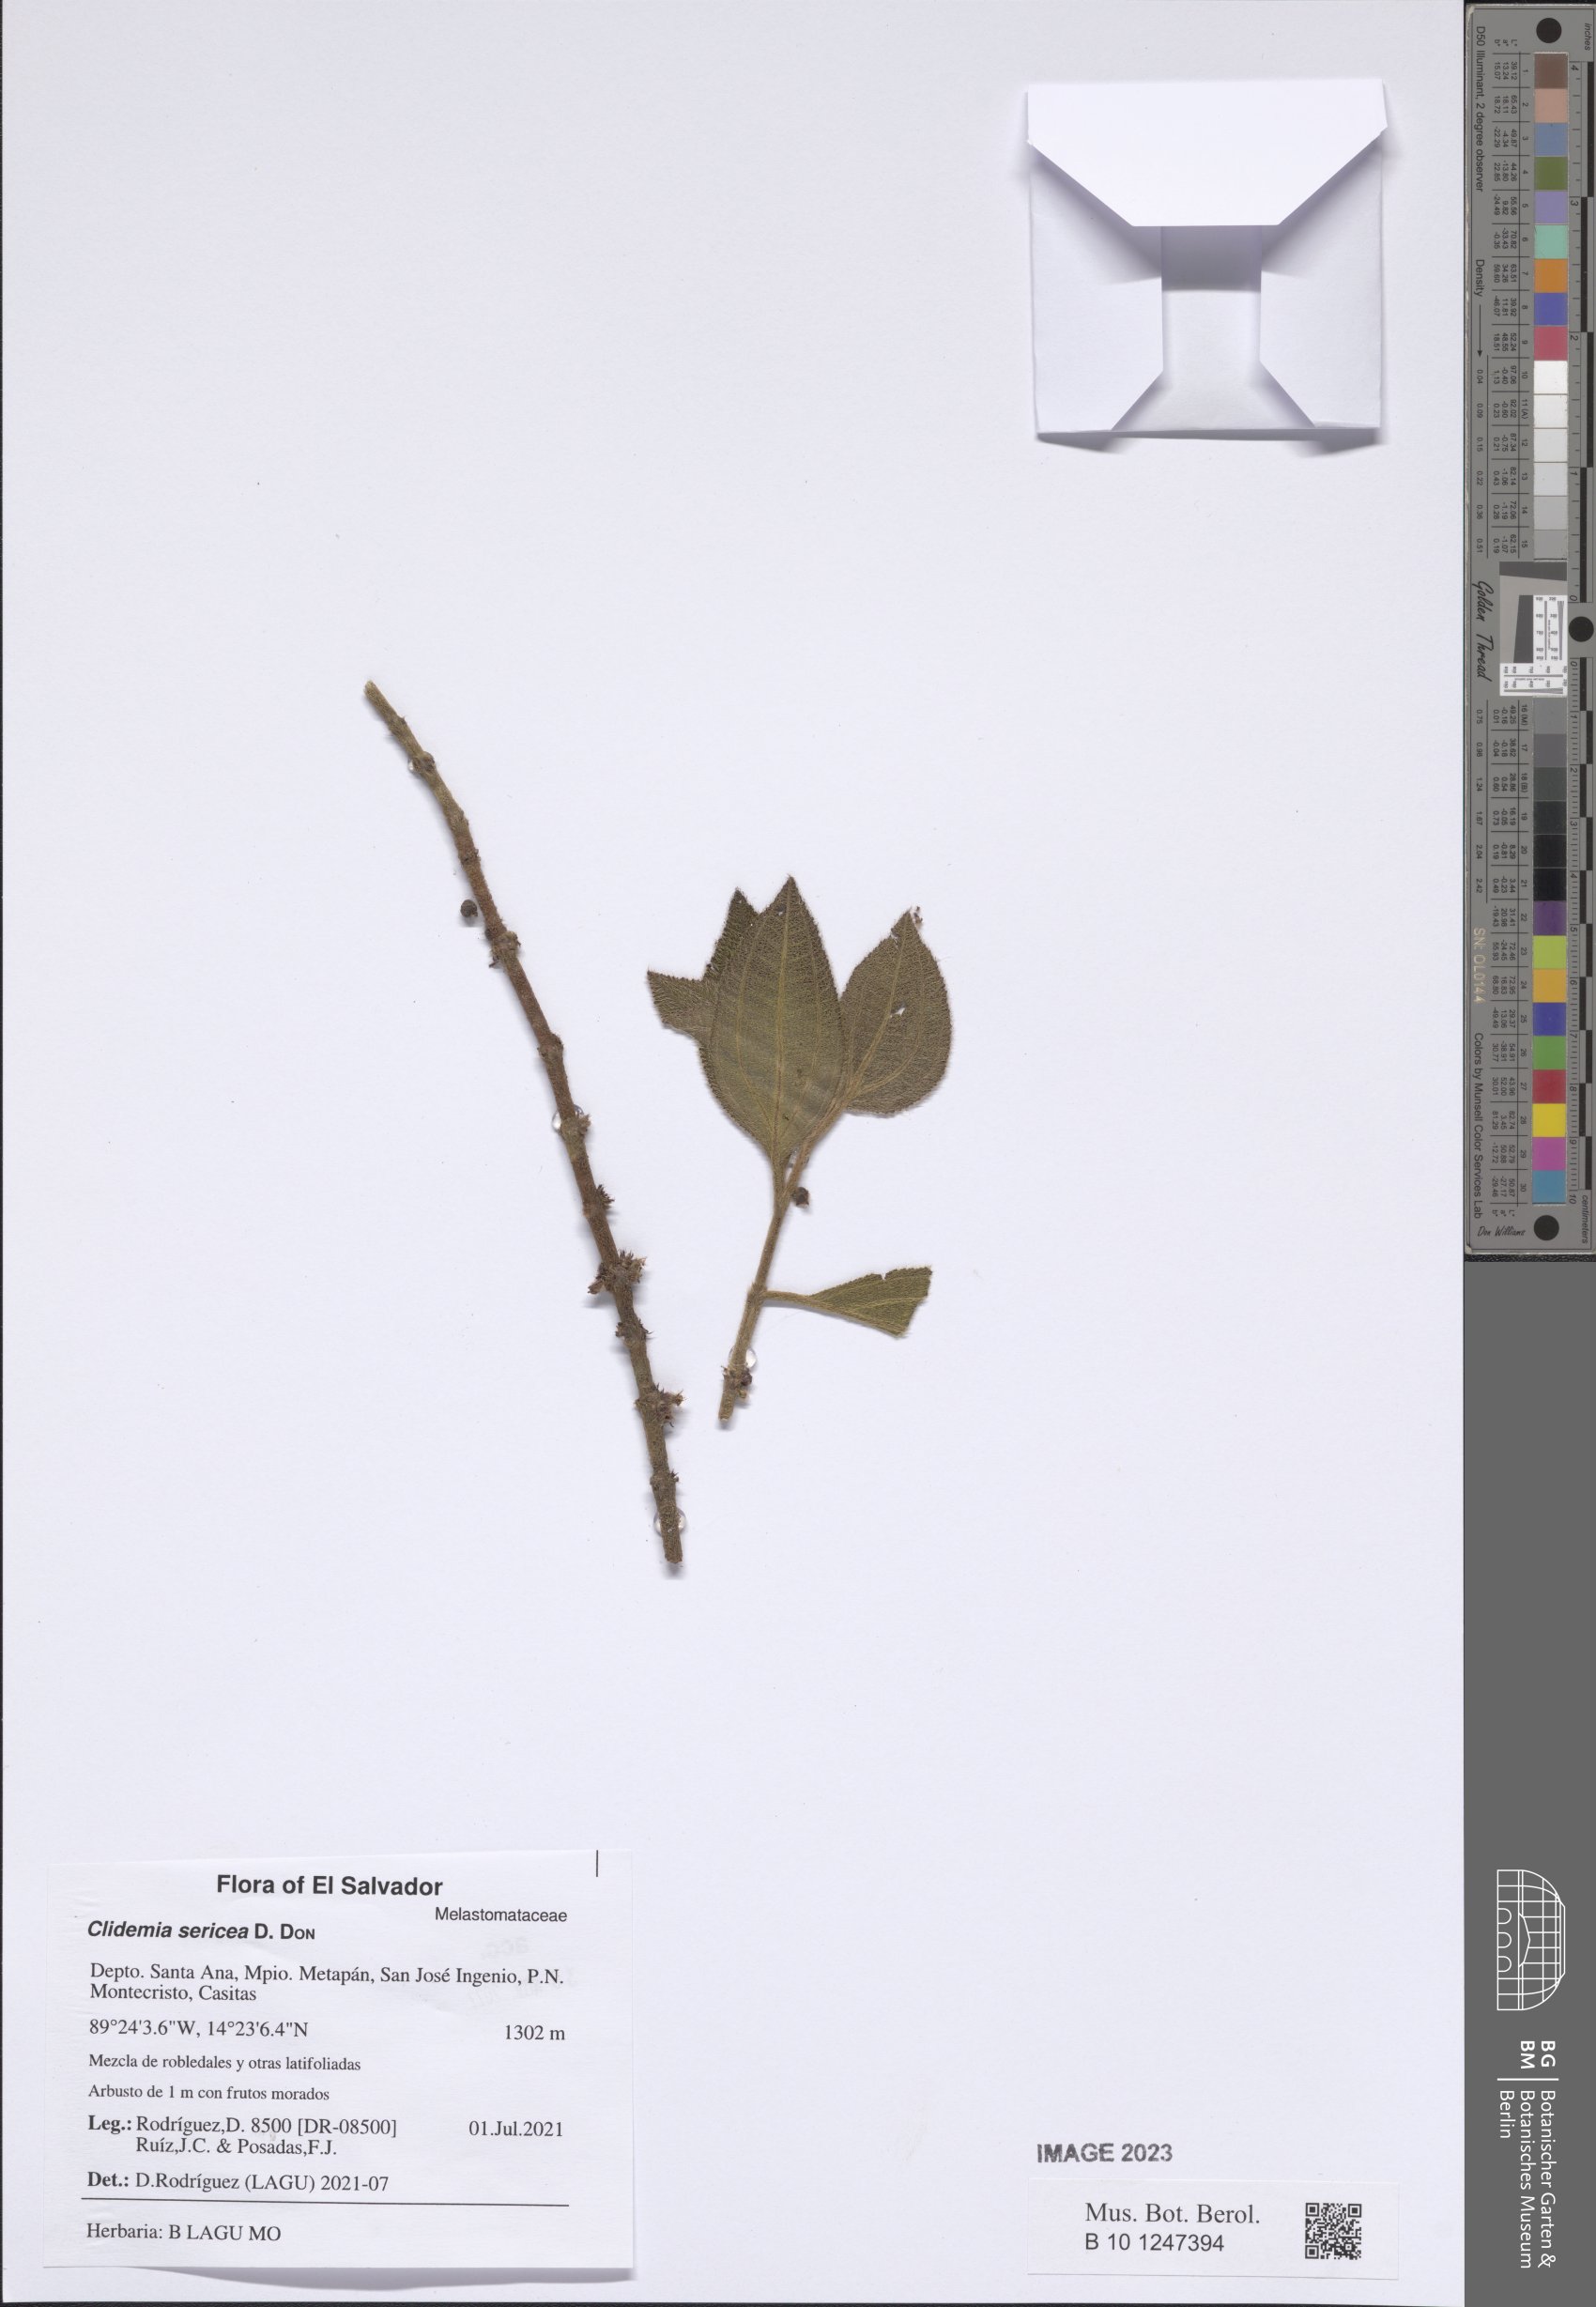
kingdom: Plantae
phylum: Tracheophyta
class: Magnoliopsida
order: Myrtales
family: Melastomataceae
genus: Miconia
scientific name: Miconia sericea
